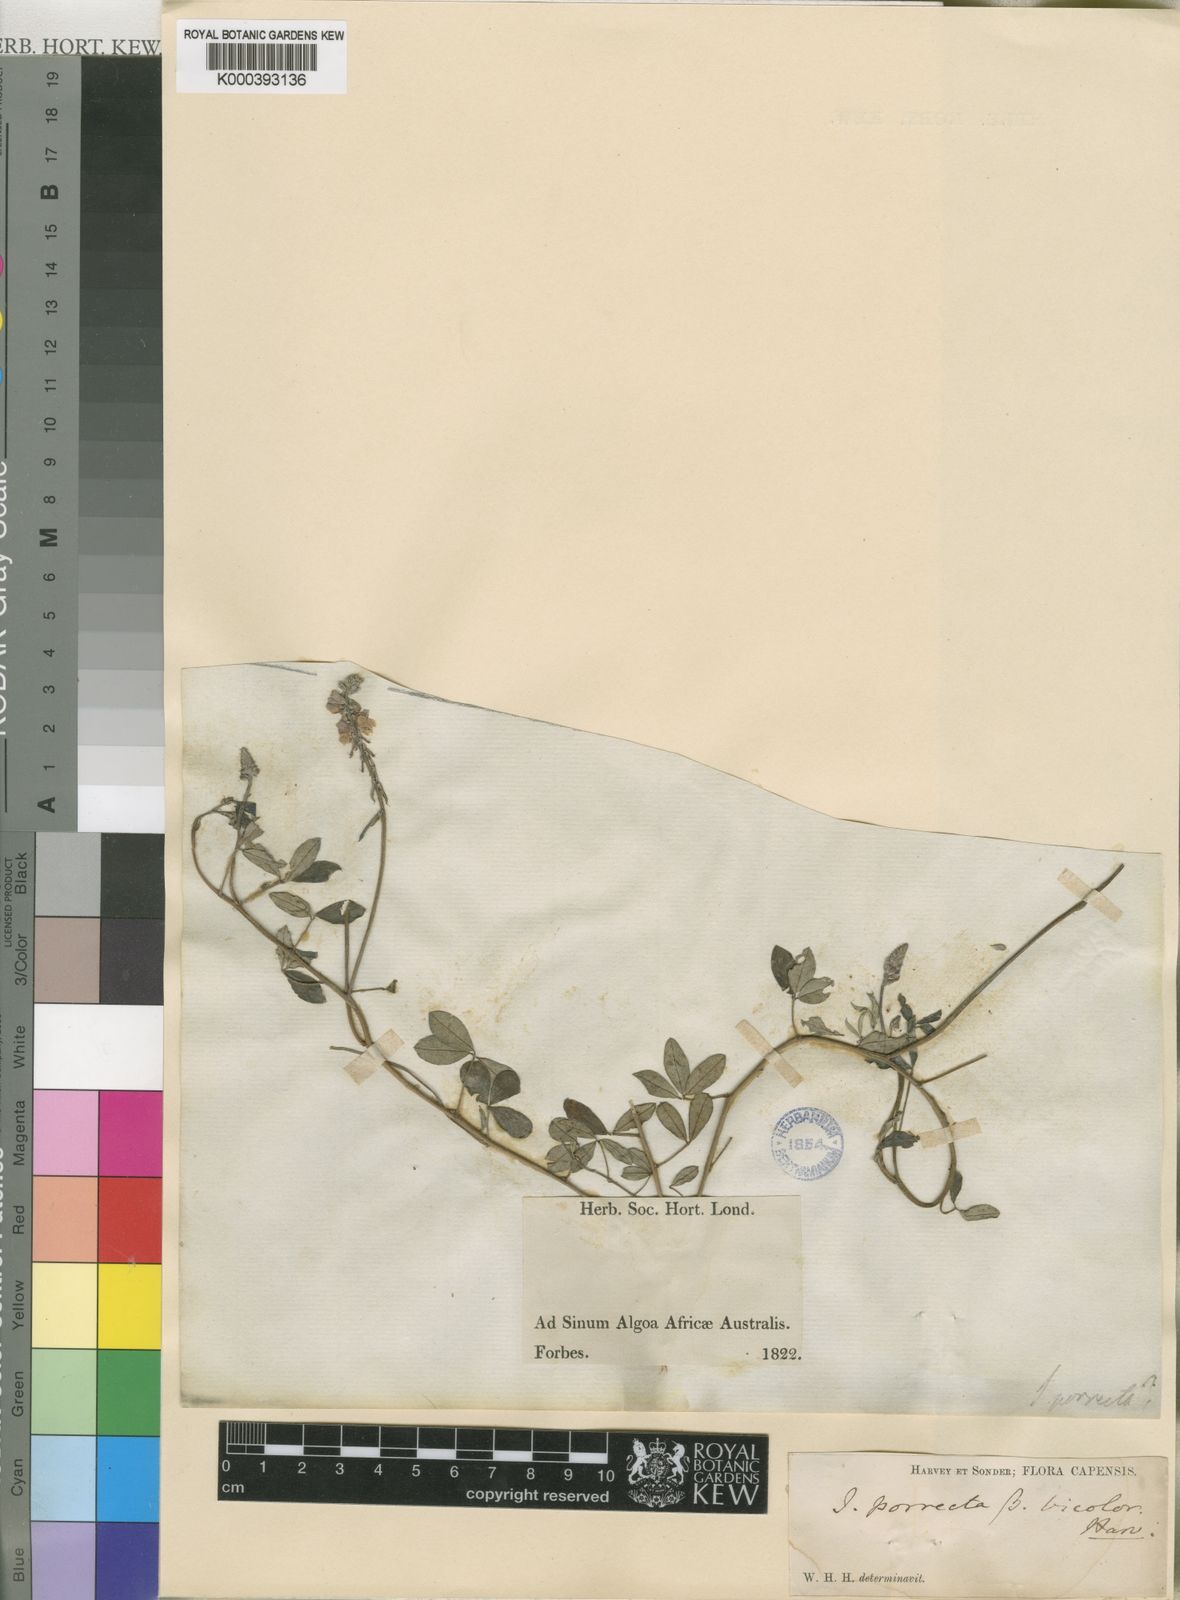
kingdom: Plantae
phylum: Tracheophyta
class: Magnoliopsida
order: Fabales
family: Fabaceae
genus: Indigofera
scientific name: Indigofera gracilis
